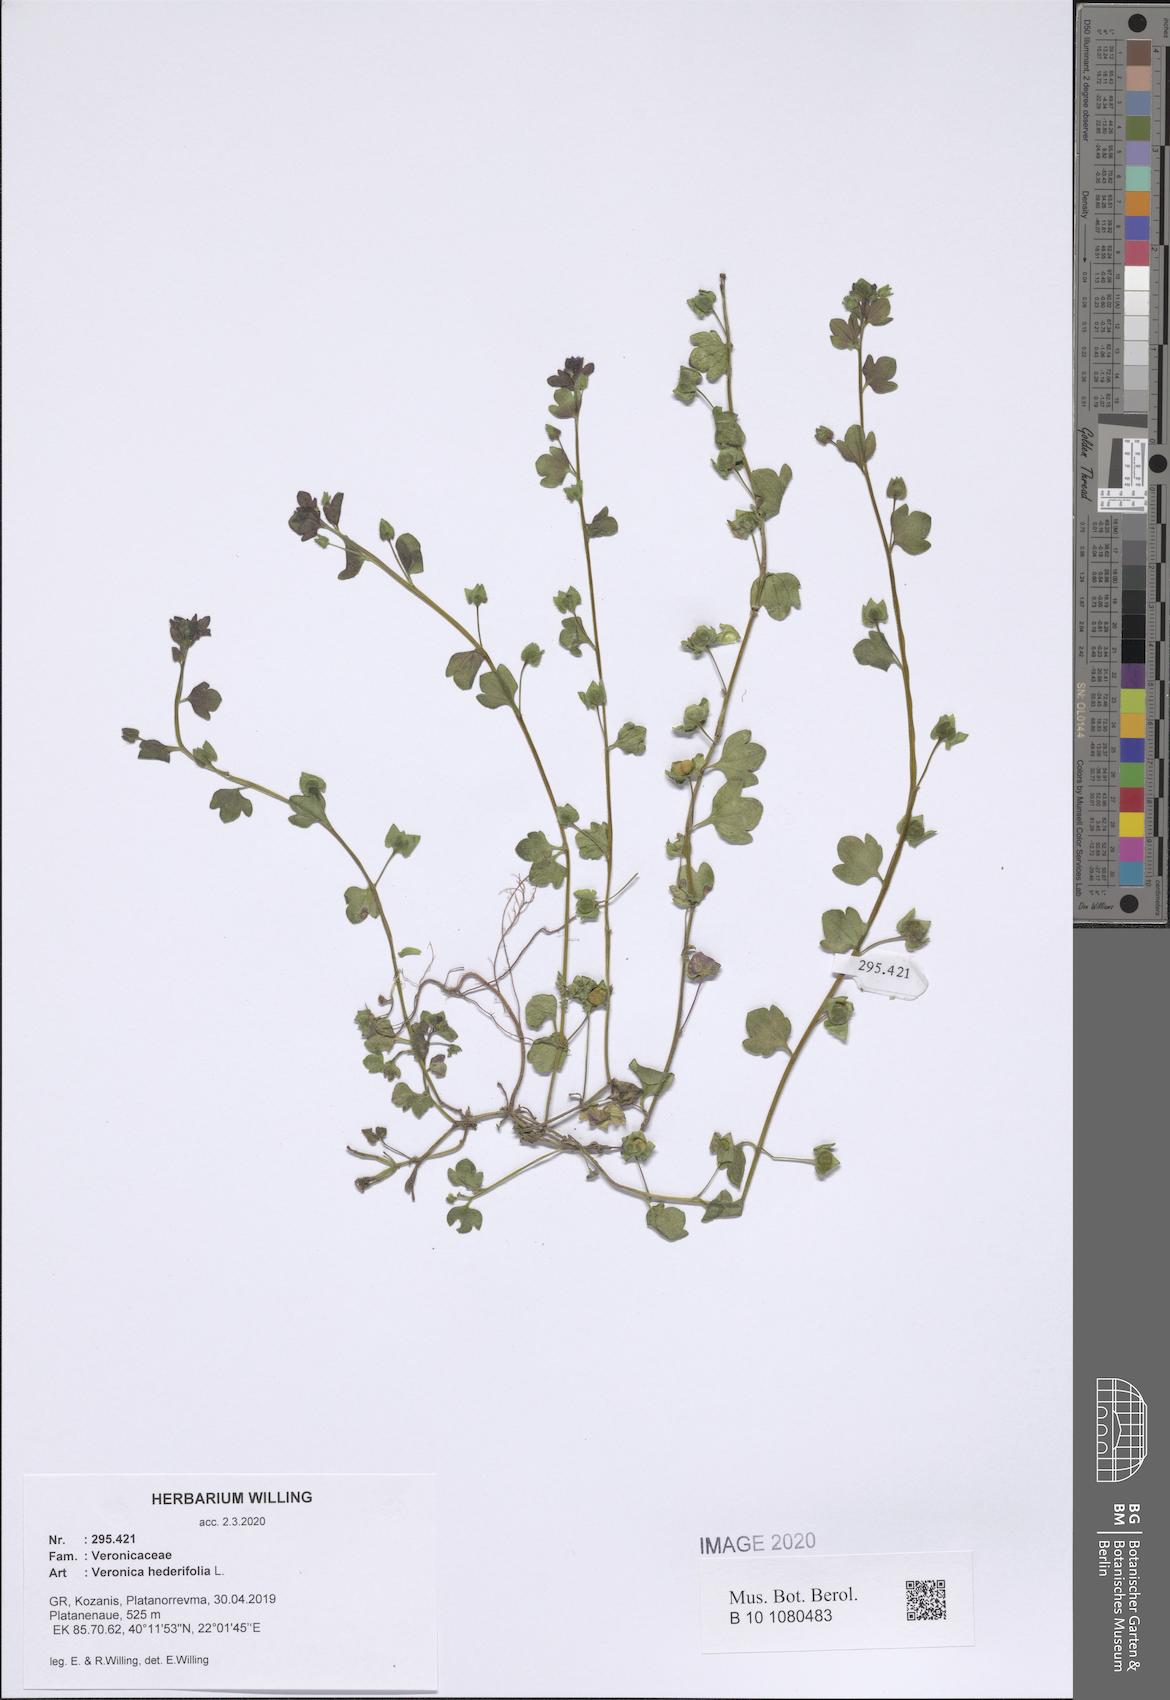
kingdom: Plantae
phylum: Tracheophyta
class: Magnoliopsida
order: Lamiales
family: Plantaginaceae
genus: Veronica
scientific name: Veronica hederifolia
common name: Ivy-leaved speedwell
